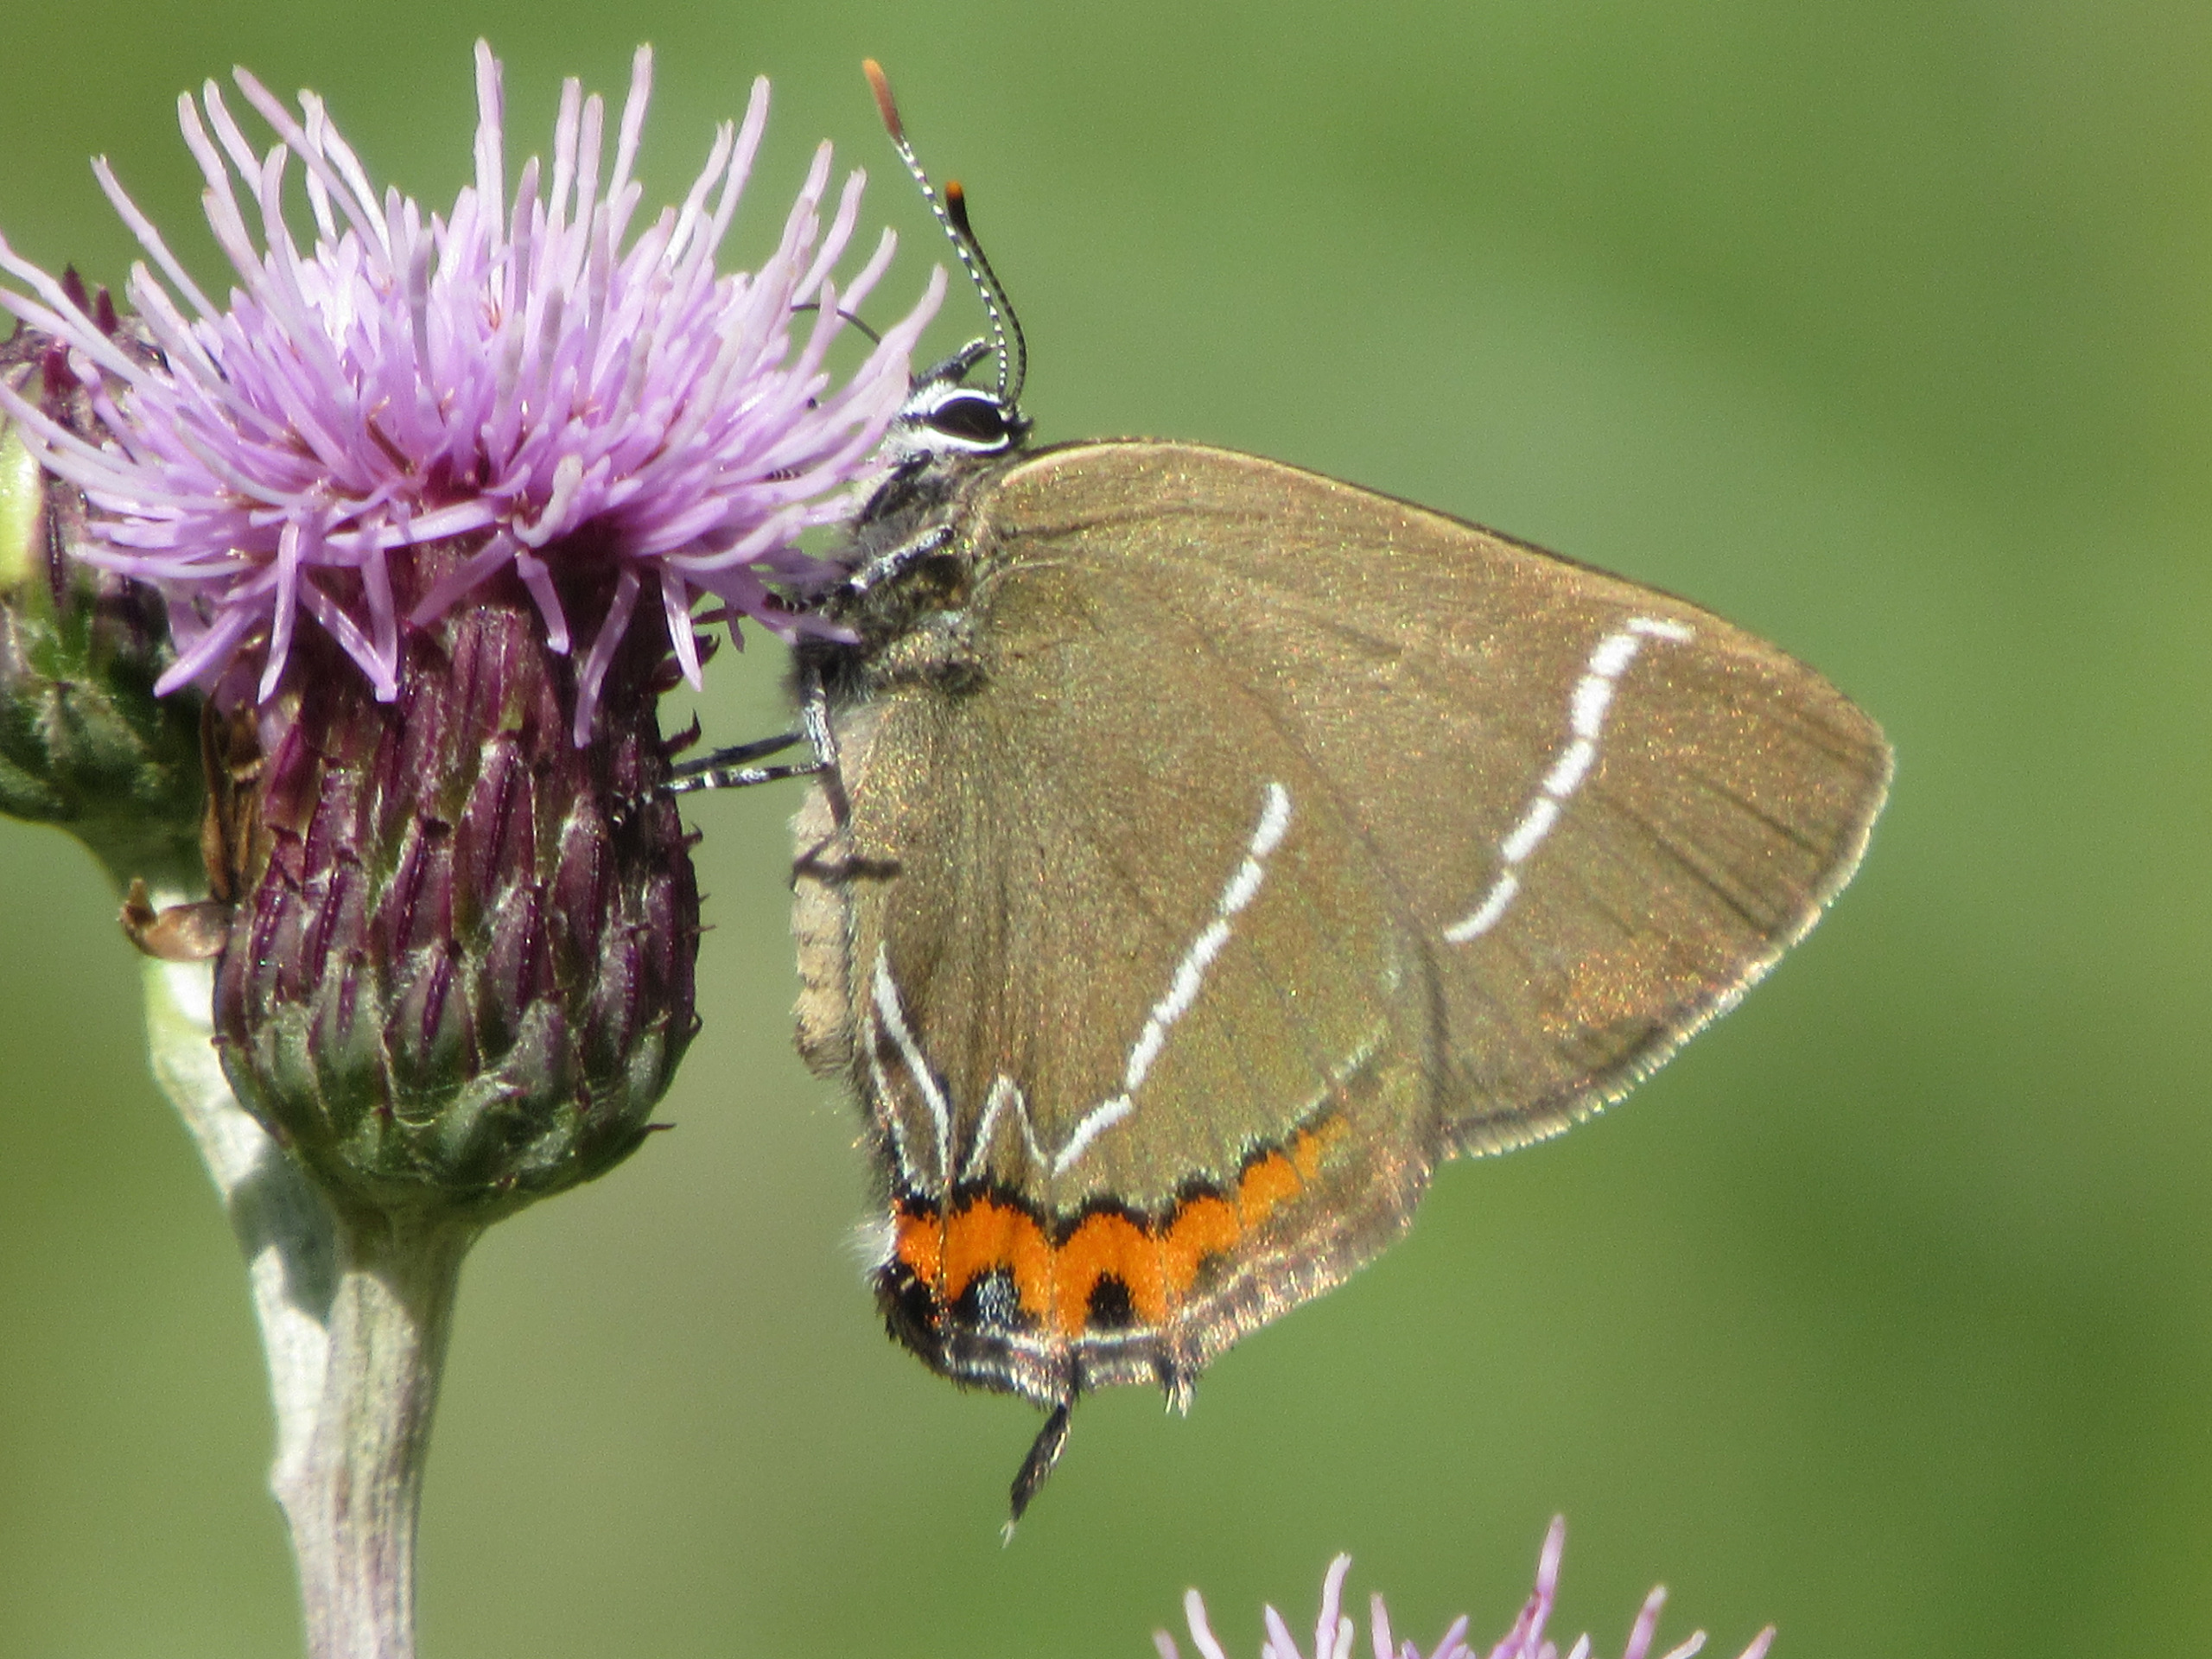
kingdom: Animalia
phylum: Arthropoda
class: Insecta
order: Lepidoptera
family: Lycaenidae
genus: Satyrium
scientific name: Satyrium w-album
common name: Det hvide W
